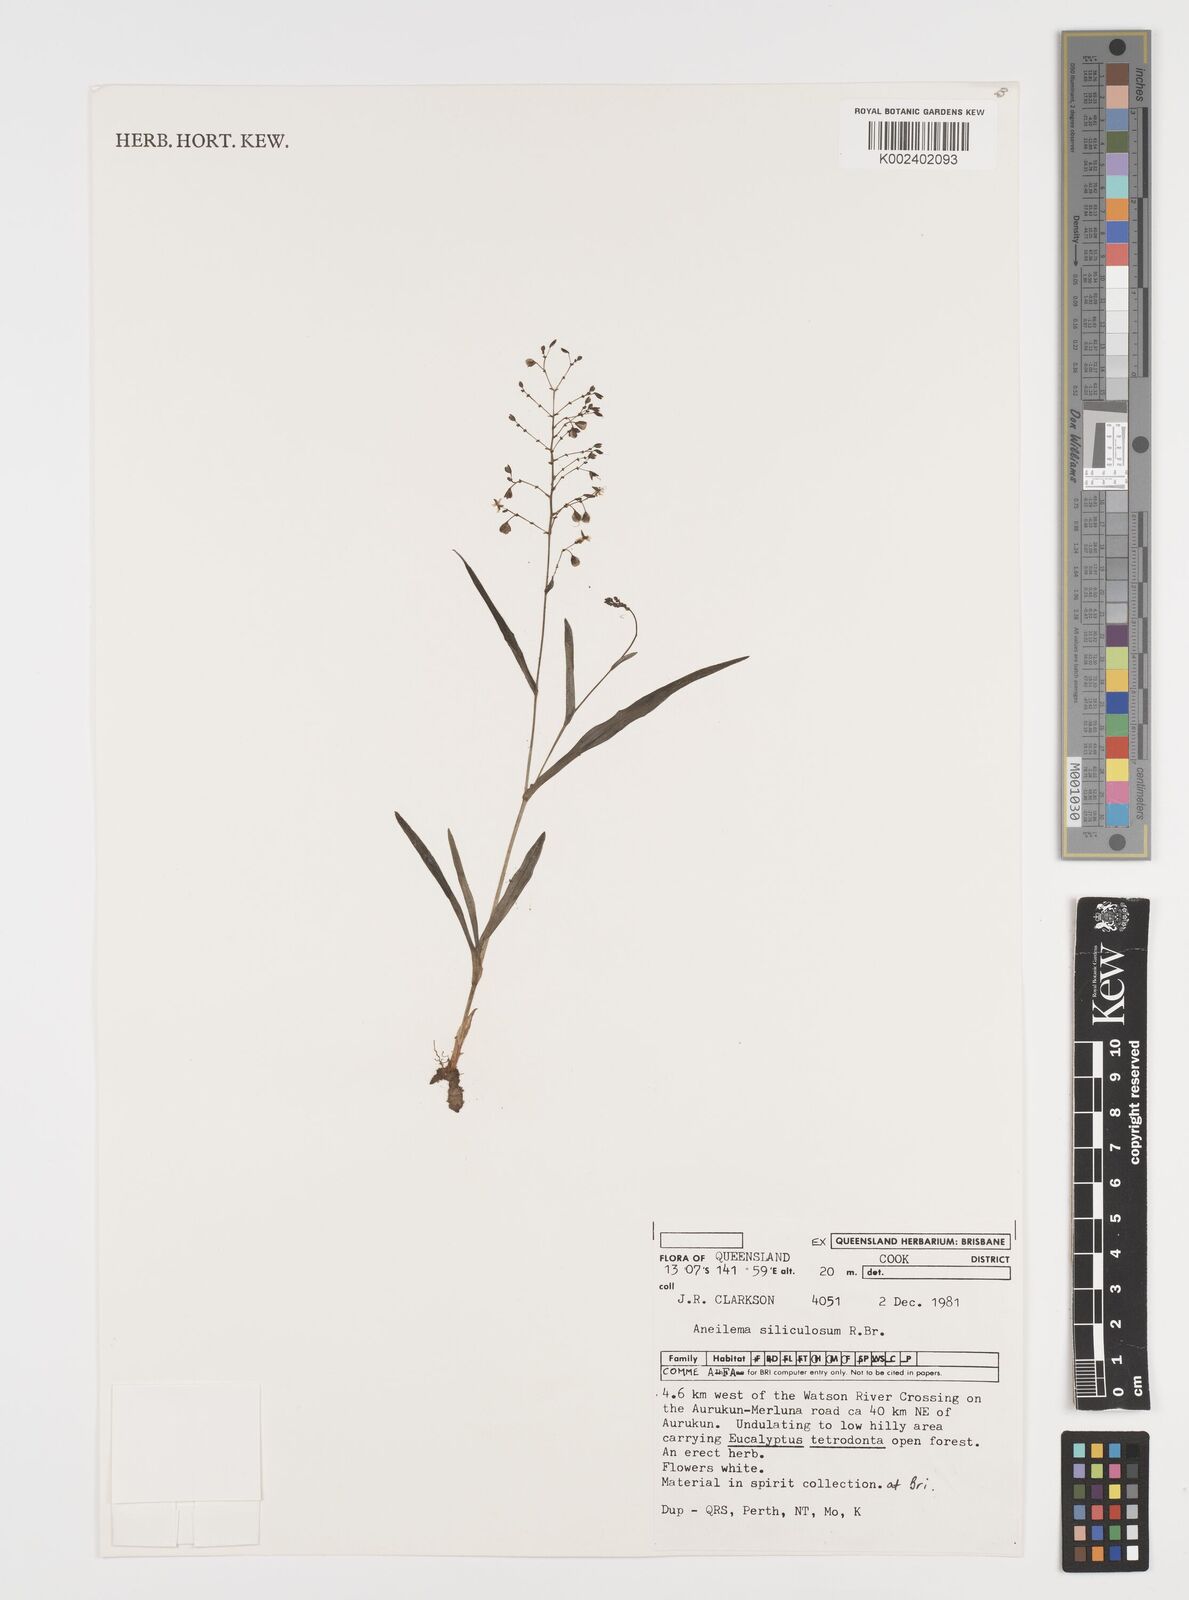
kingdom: Plantae
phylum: Tracheophyta
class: Liliopsida
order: Commelinales
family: Commelinaceae
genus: Aneilema
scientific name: Aneilema siliculosum
